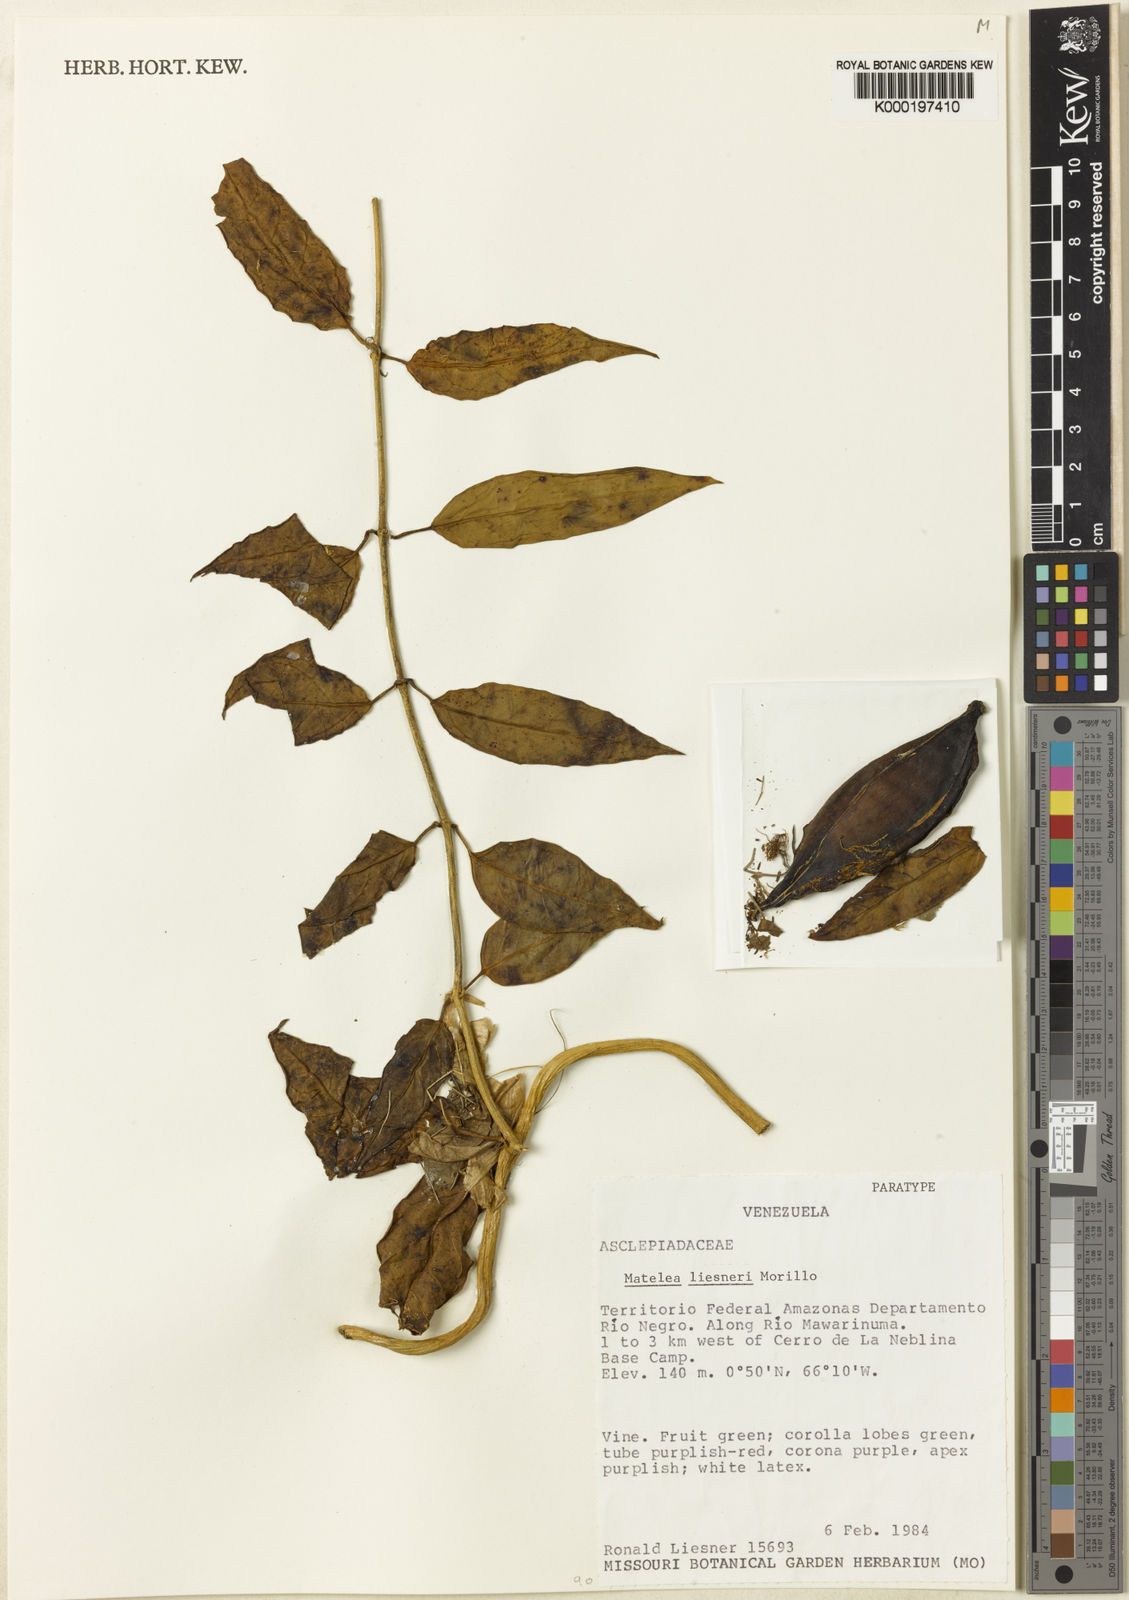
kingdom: Plantae
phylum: Tracheophyta
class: Magnoliopsida
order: Gentianales
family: Apocynaceae
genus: Matelea
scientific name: Matelea liesneri
